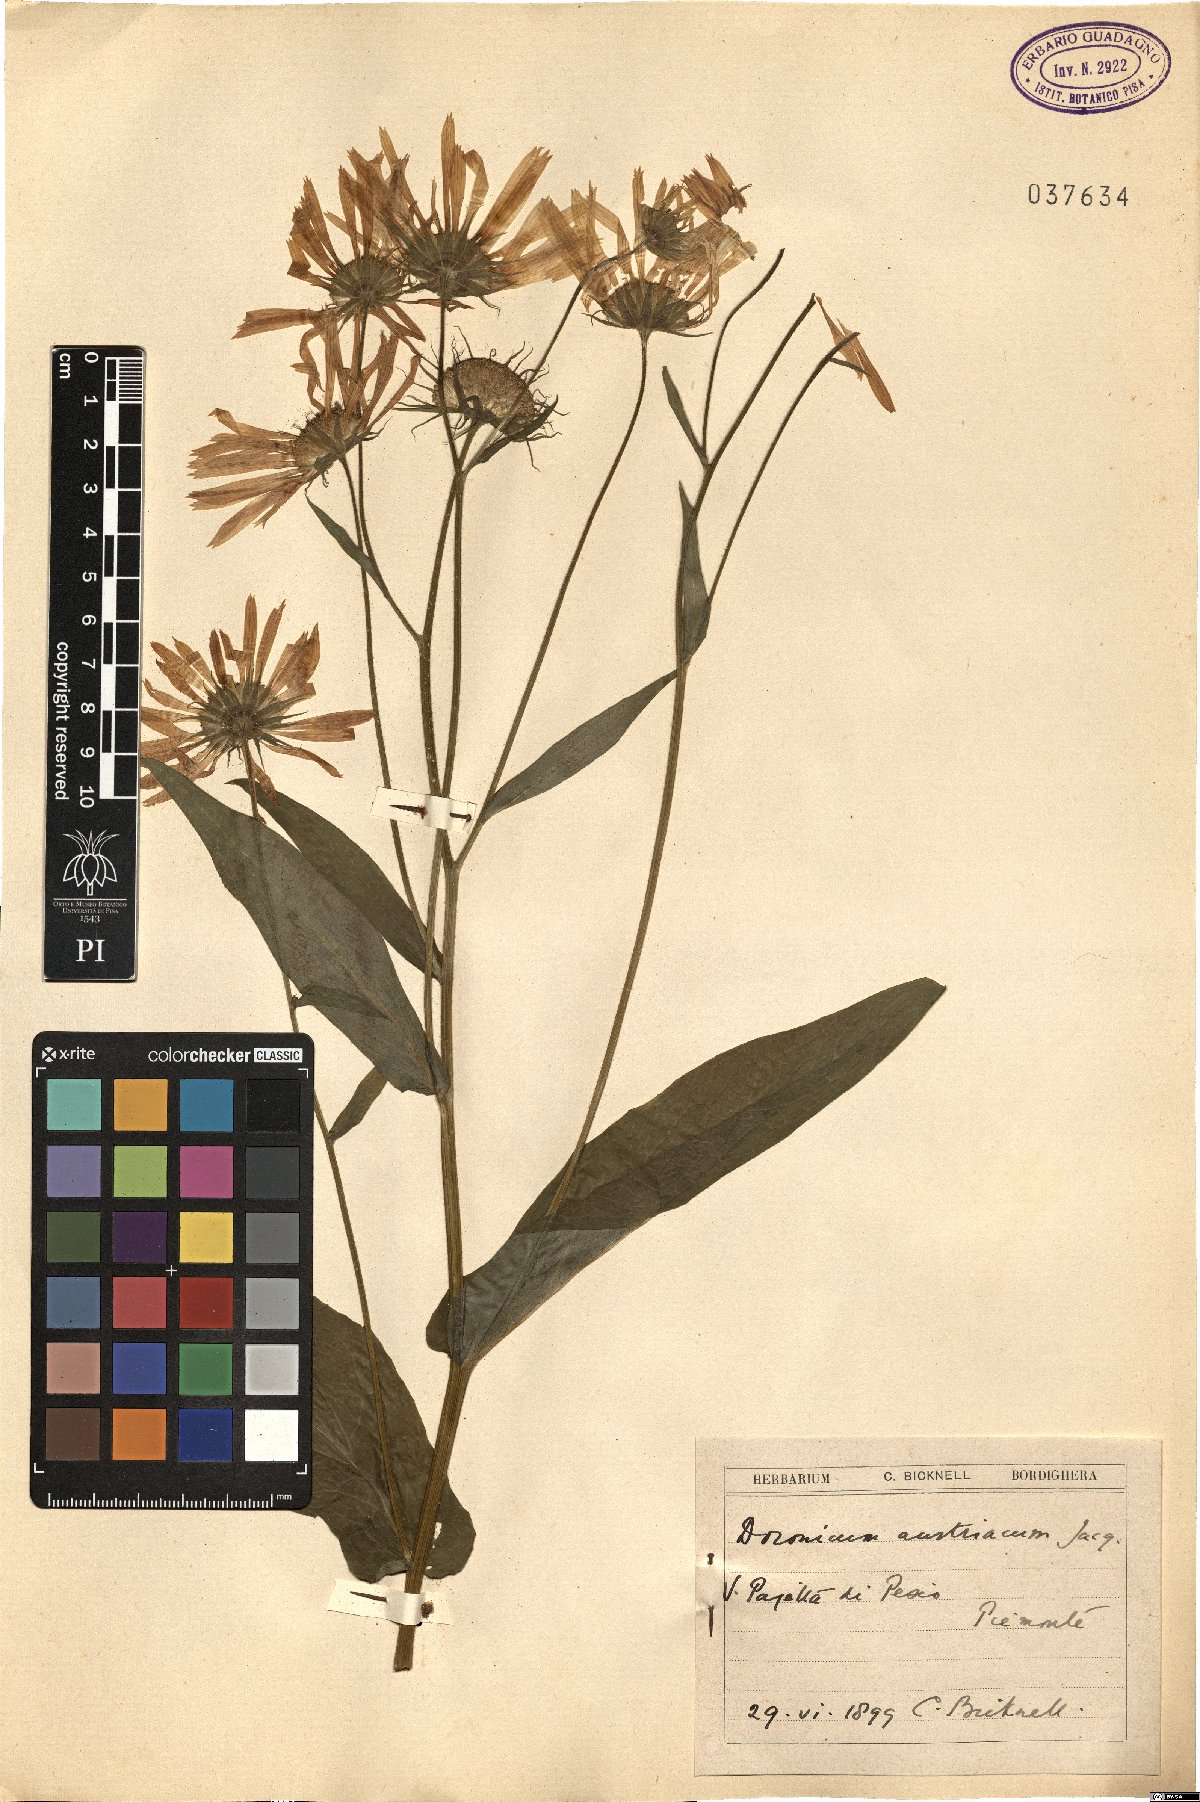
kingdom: Plantae
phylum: Tracheophyta
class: Magnoliopsida
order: Asterales
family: Asteraceae
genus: Doronicum
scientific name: Doronicum austriacum
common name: Austrian leopard's-bane
